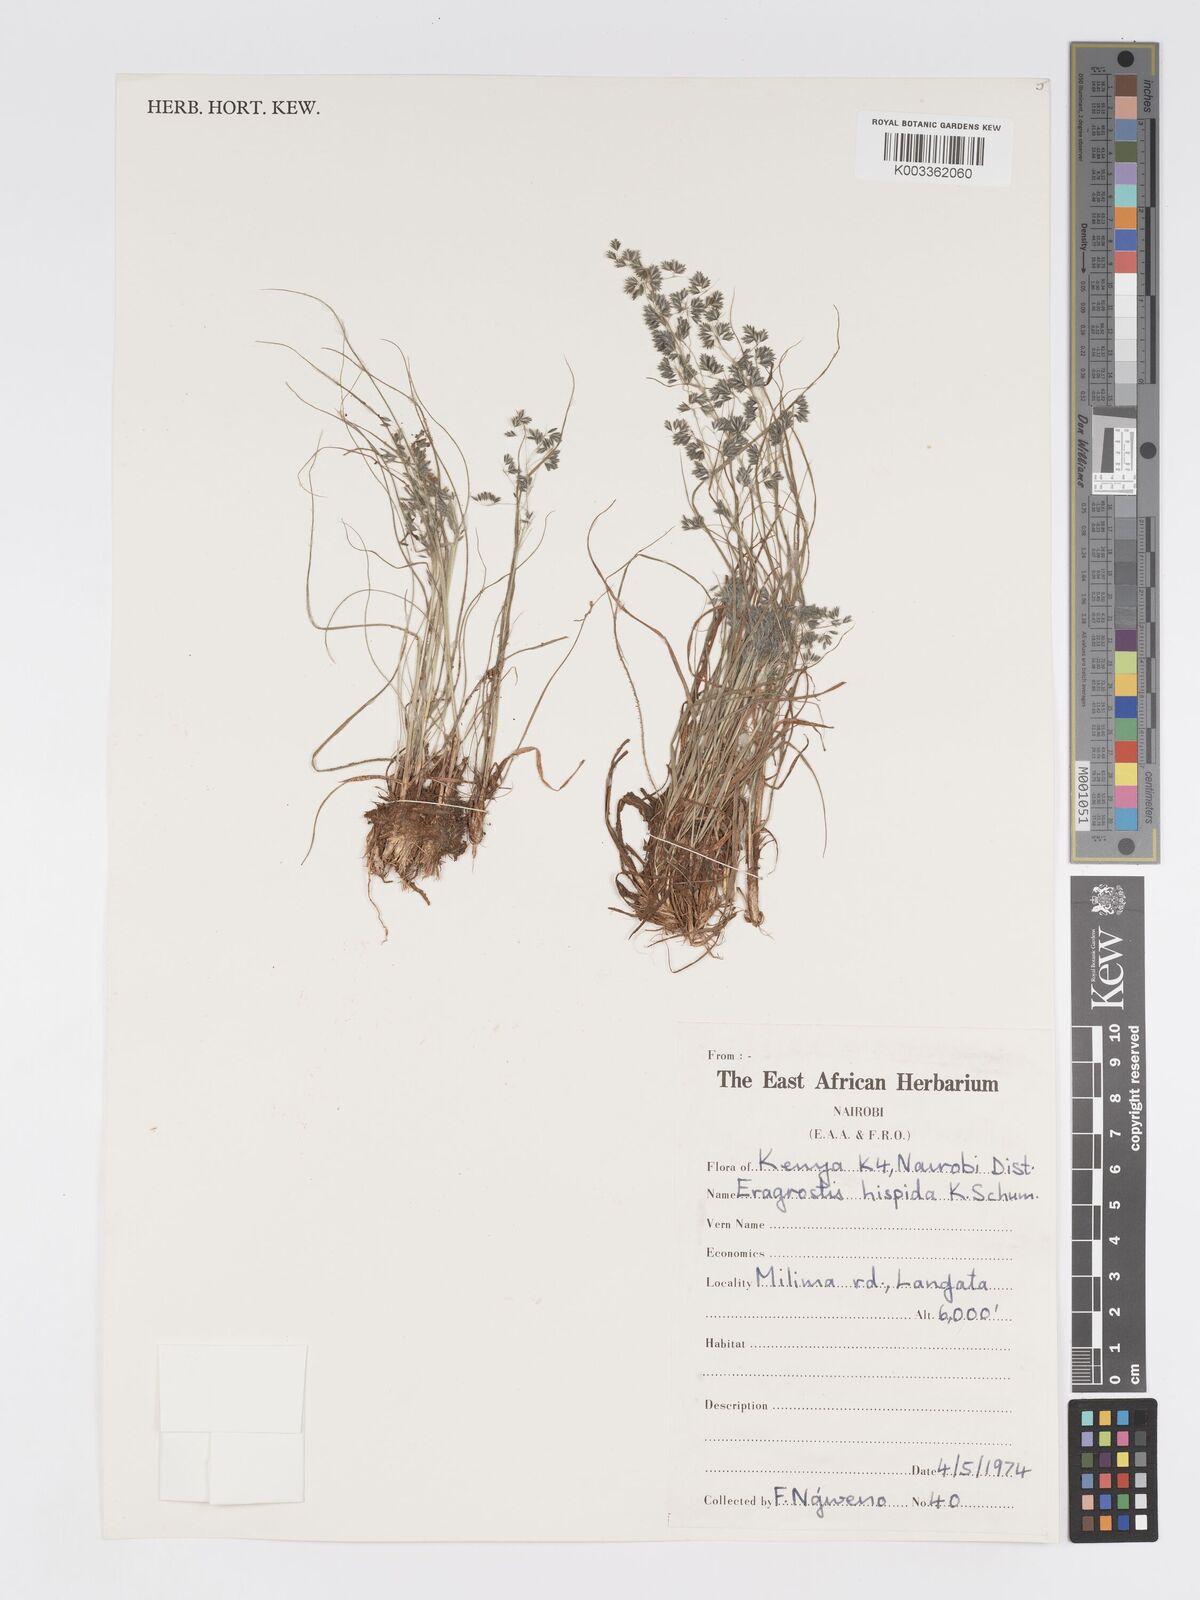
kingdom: Plantae
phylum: Tracheophyta
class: Liliopsida
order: Poales
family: Poaceae
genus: Eragrostis
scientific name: Eragrostis hispida
